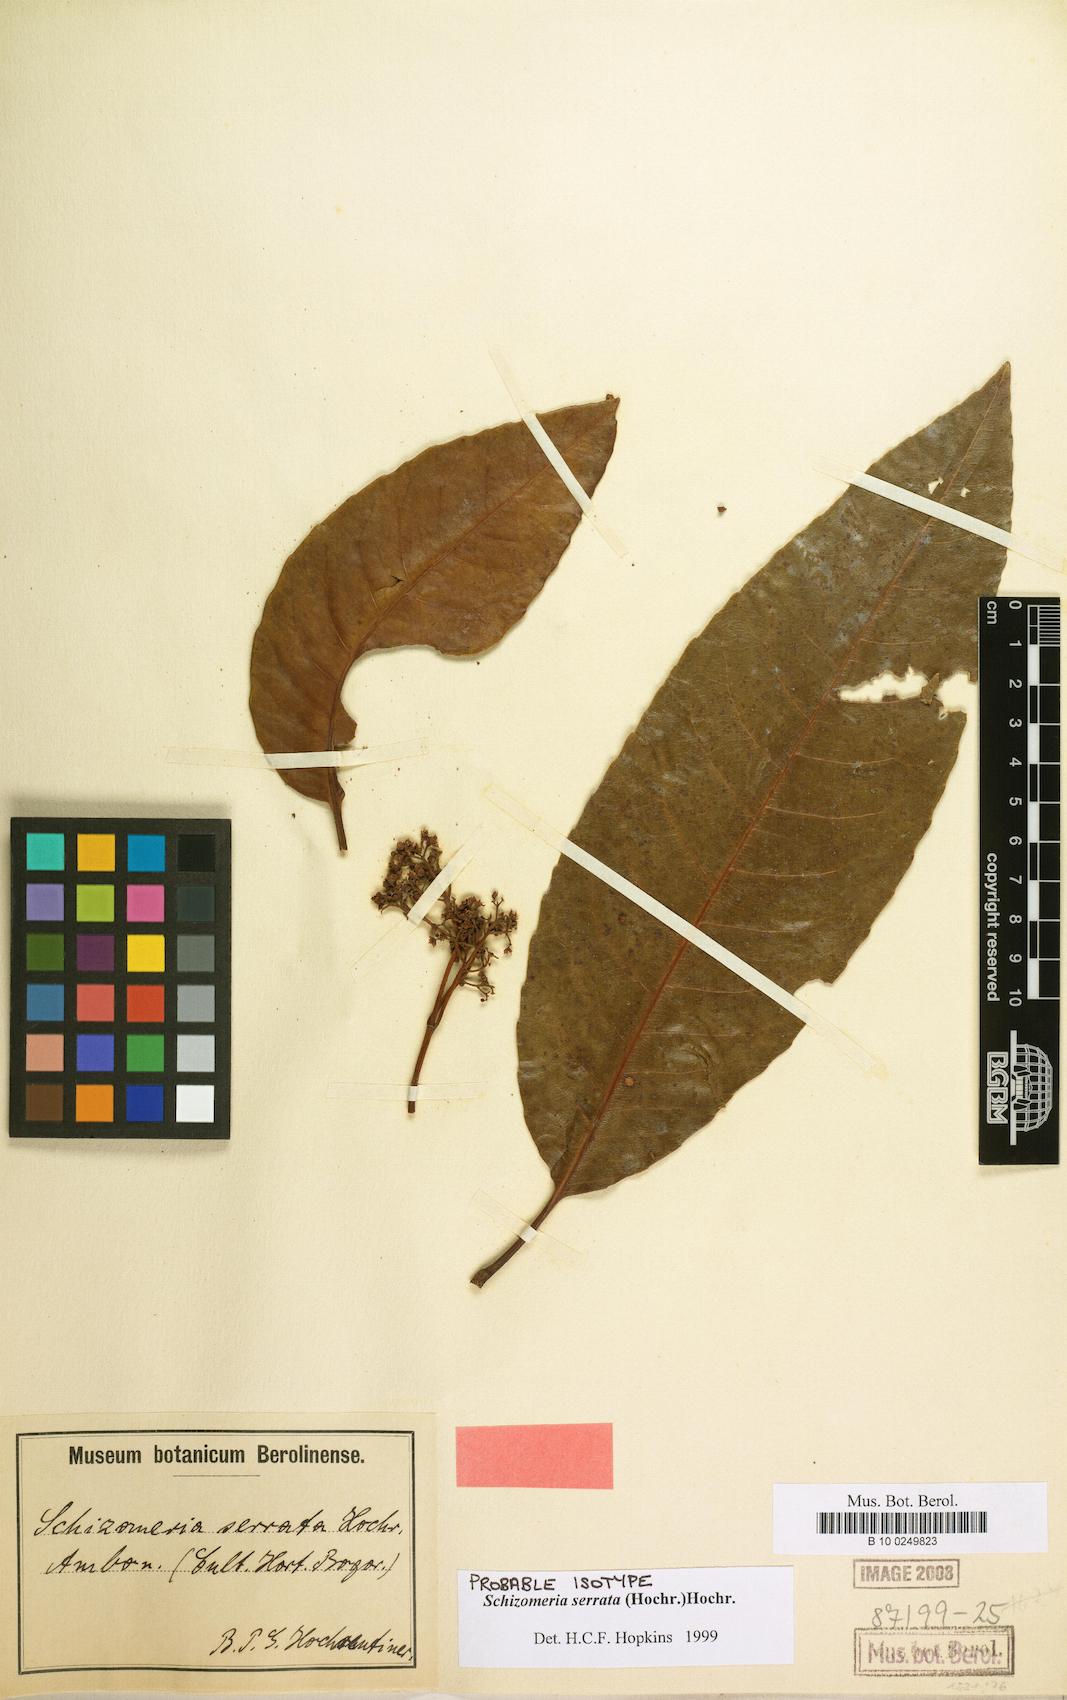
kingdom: Plantae
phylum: Tracheophyta
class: Magnoliopsida
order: Oxalidales
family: Cunoniaceae
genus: Schizomeria
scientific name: Schizomeria serrata
